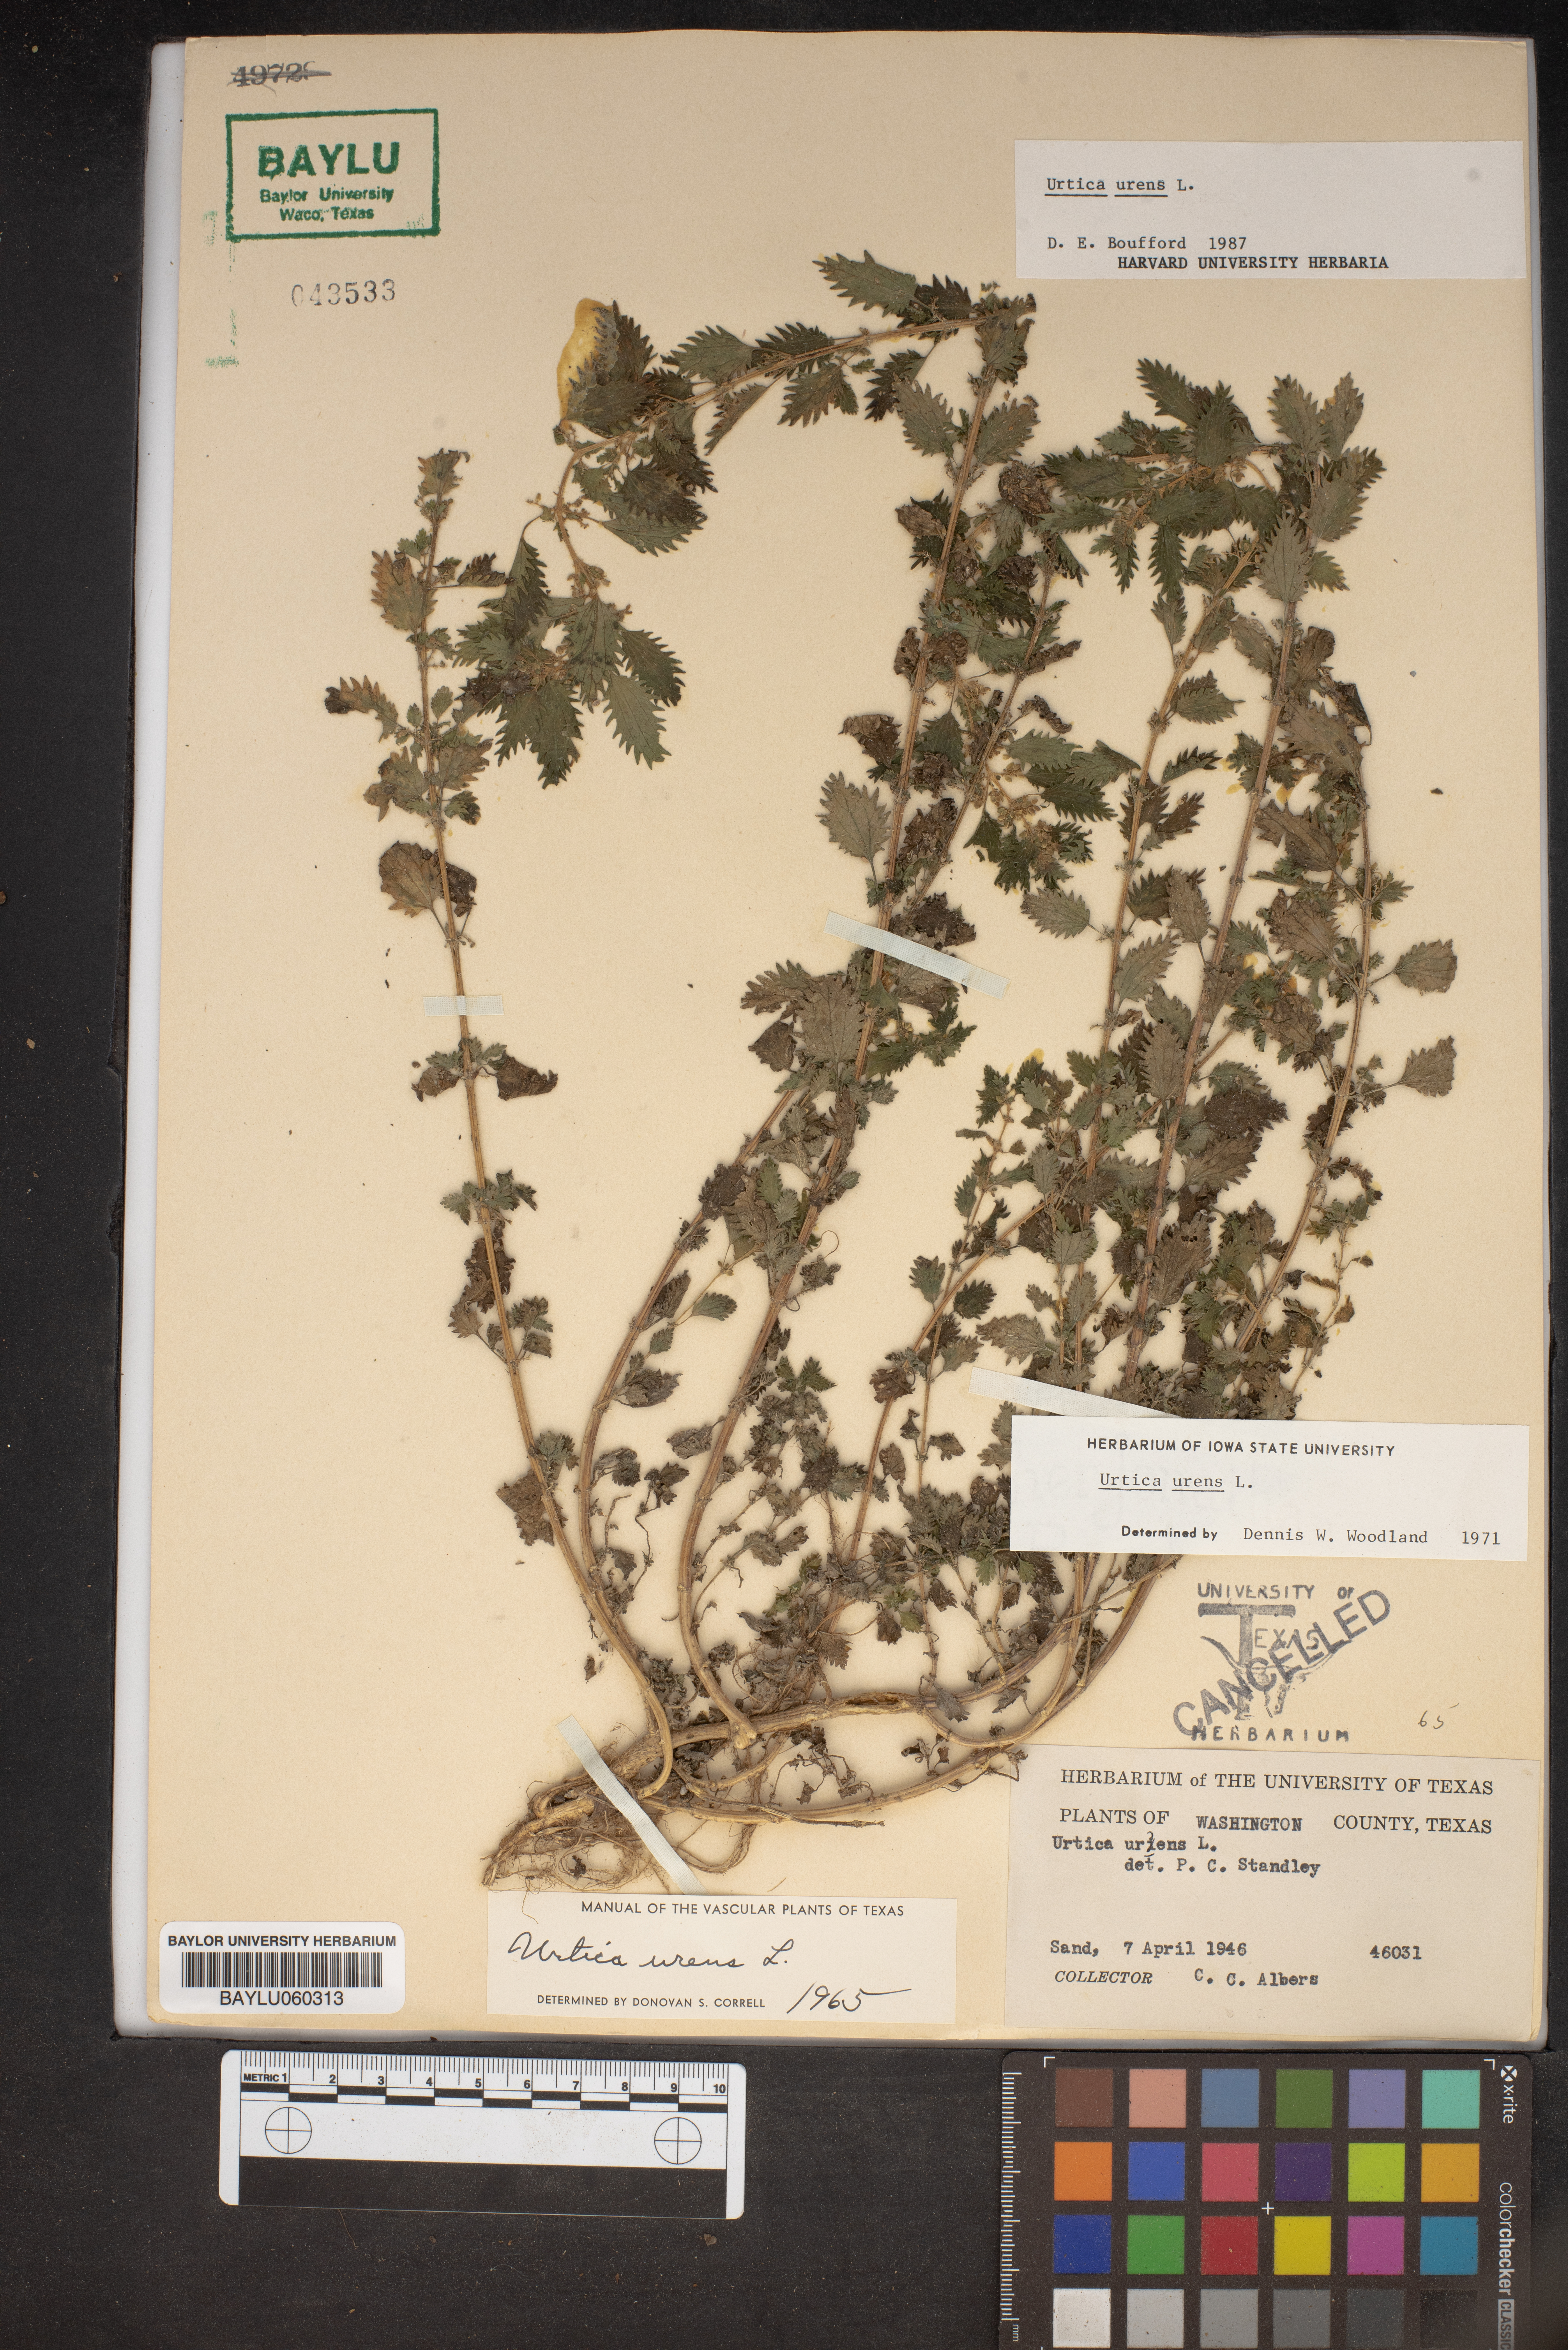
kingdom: Plantae
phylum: Tracheophyta
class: Magnoliopsida
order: Rosales
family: Urticaceae
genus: Urtica
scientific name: Urtica urens
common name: Dwarf nettle
